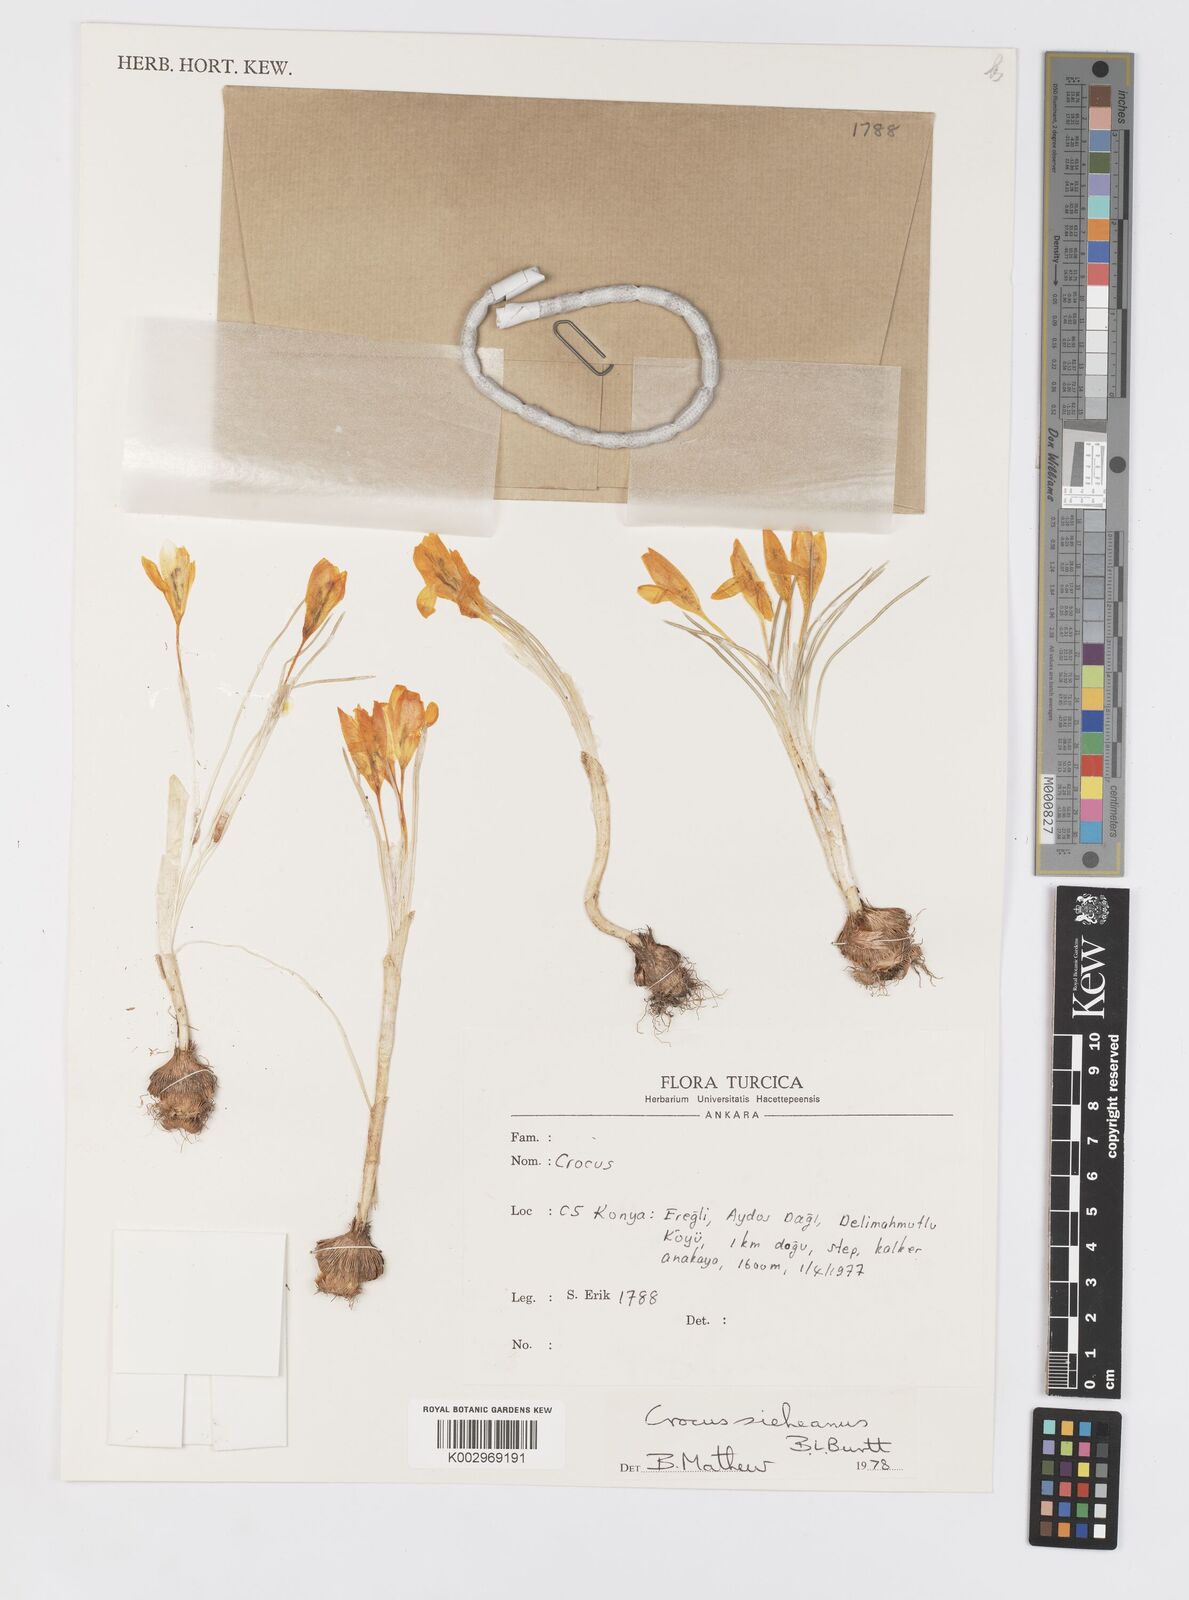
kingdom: Plantae
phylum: Tracheophyta
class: Liliopsida
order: Asparagales
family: Iridaceae
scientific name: Iridaceae
